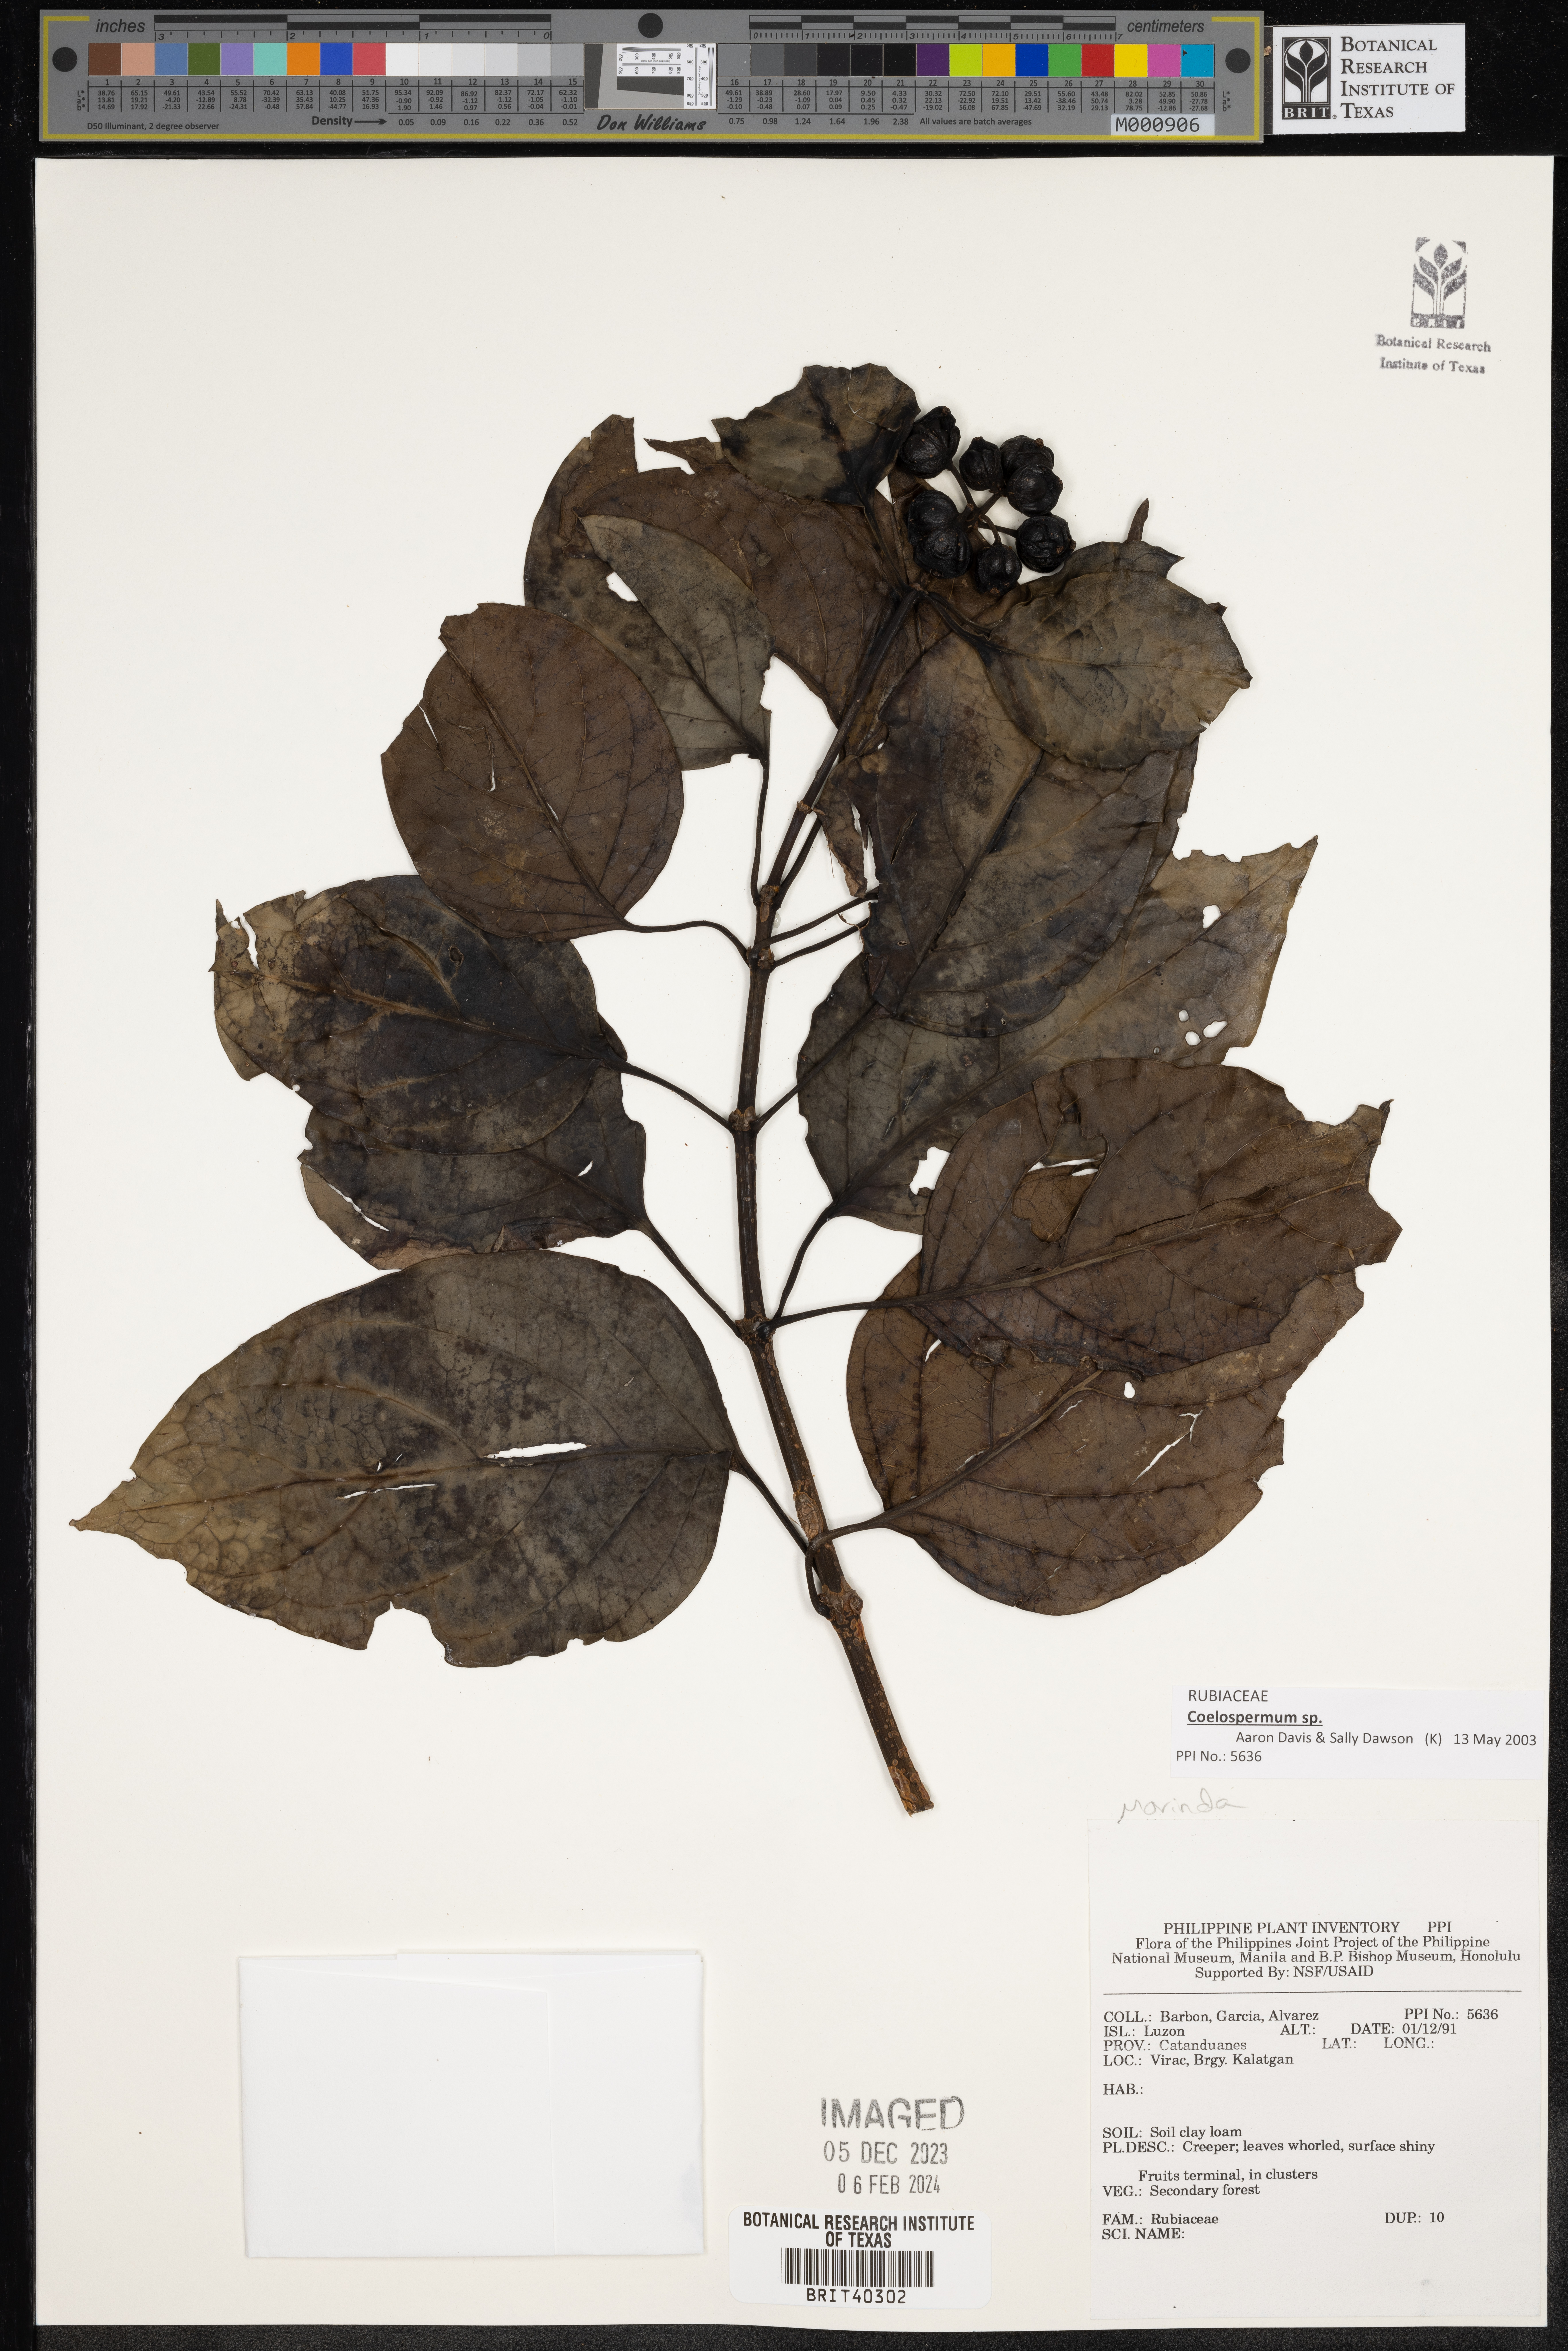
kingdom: Plantae
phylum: Tracheophyta
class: Magnoliopsida
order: Gentianales
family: Rubiaceae
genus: Morinda
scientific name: Morinda
